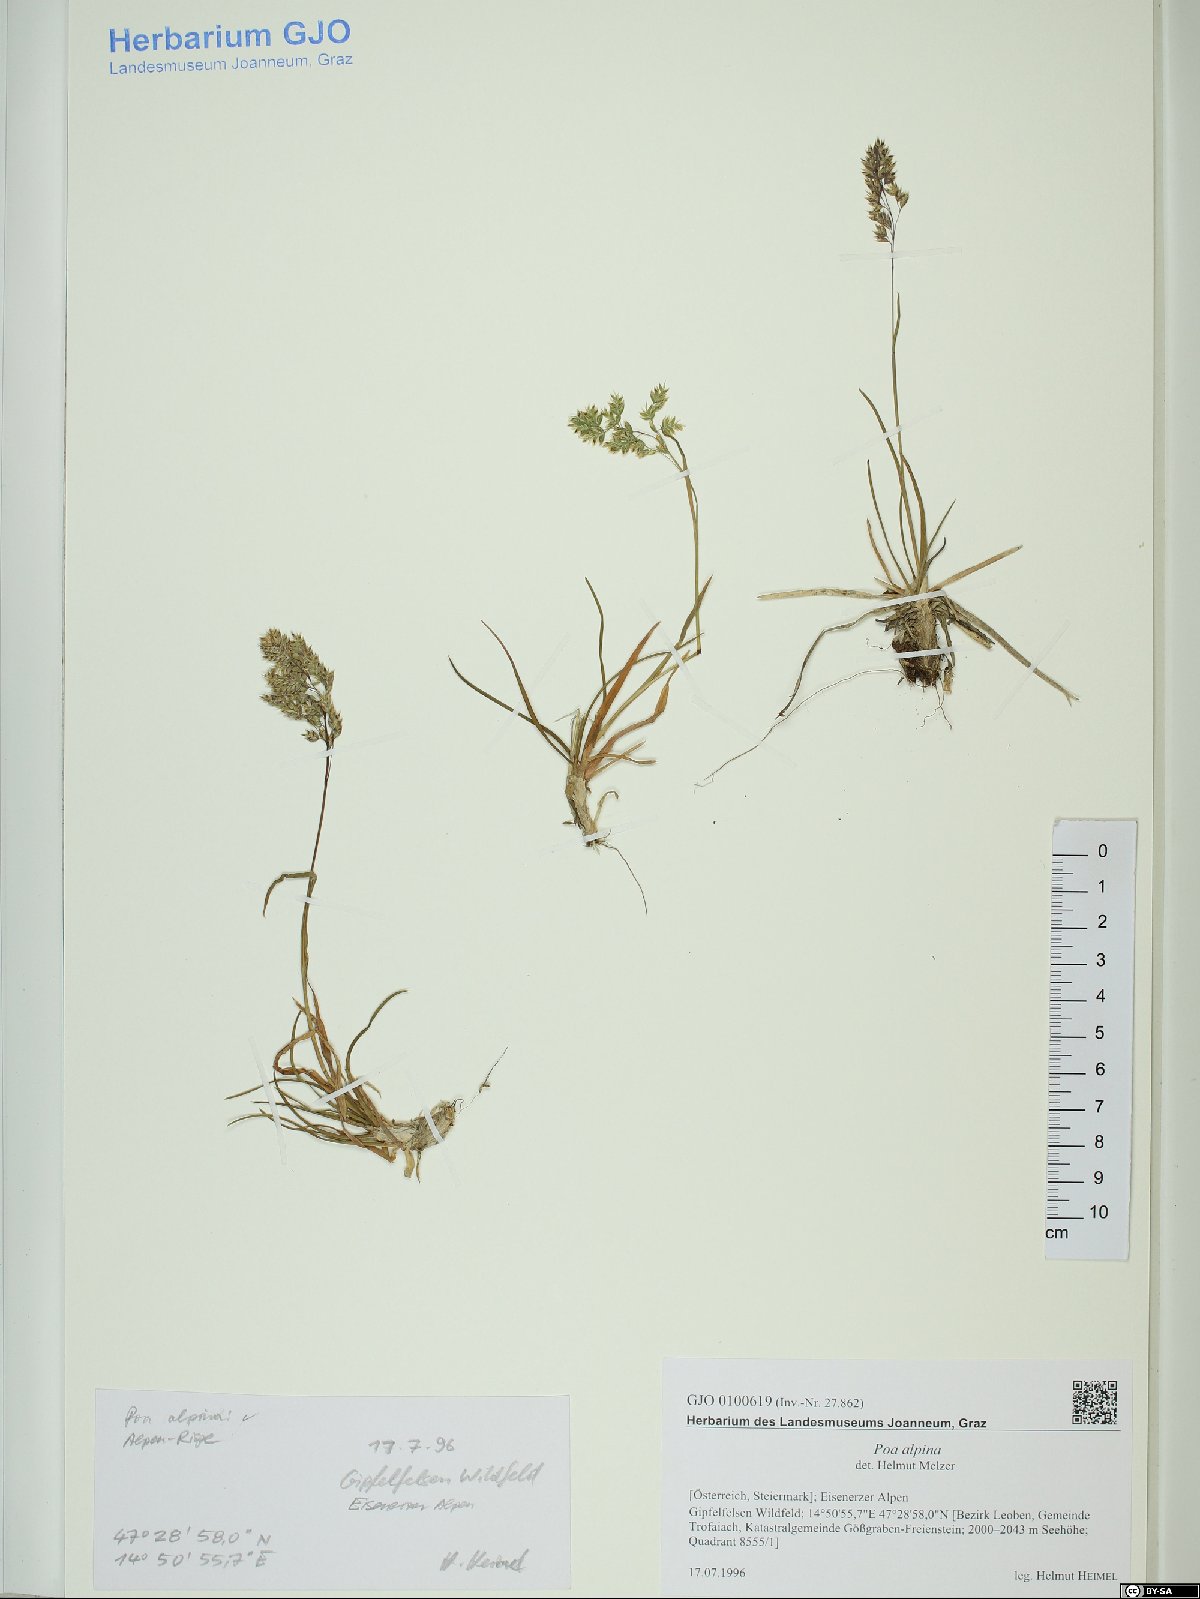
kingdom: Plantae
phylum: Tracheophyta
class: Liliopsida
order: Poales
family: Poaceae
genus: Poa
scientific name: Poa alpina
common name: Alpine bluegrass
